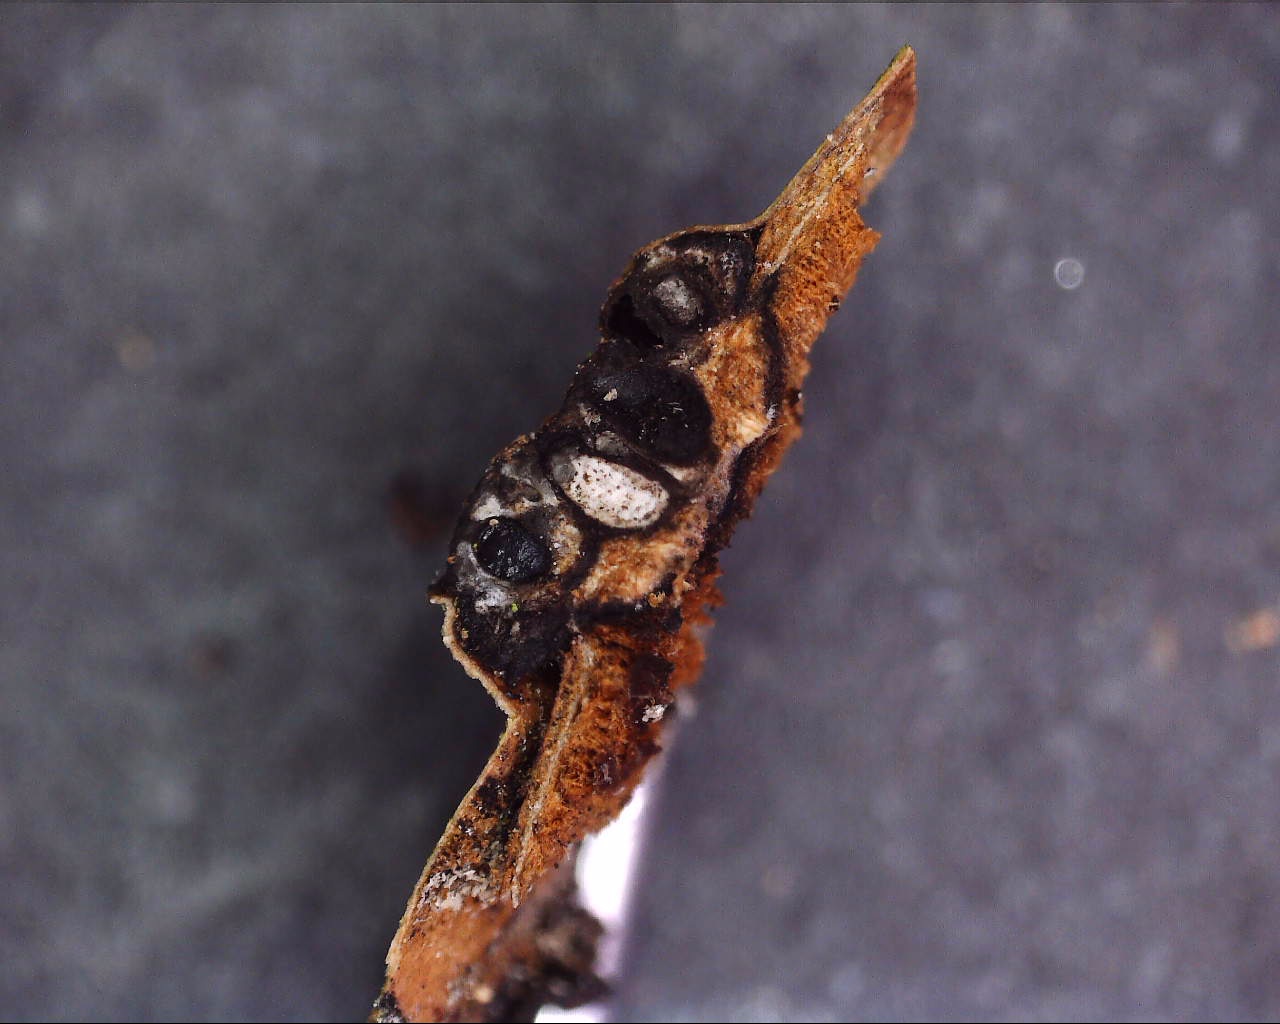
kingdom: Fungi
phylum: Ascomycota
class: Sordariomycetes
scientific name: Sordariomycetes
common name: kernesvampklassen
